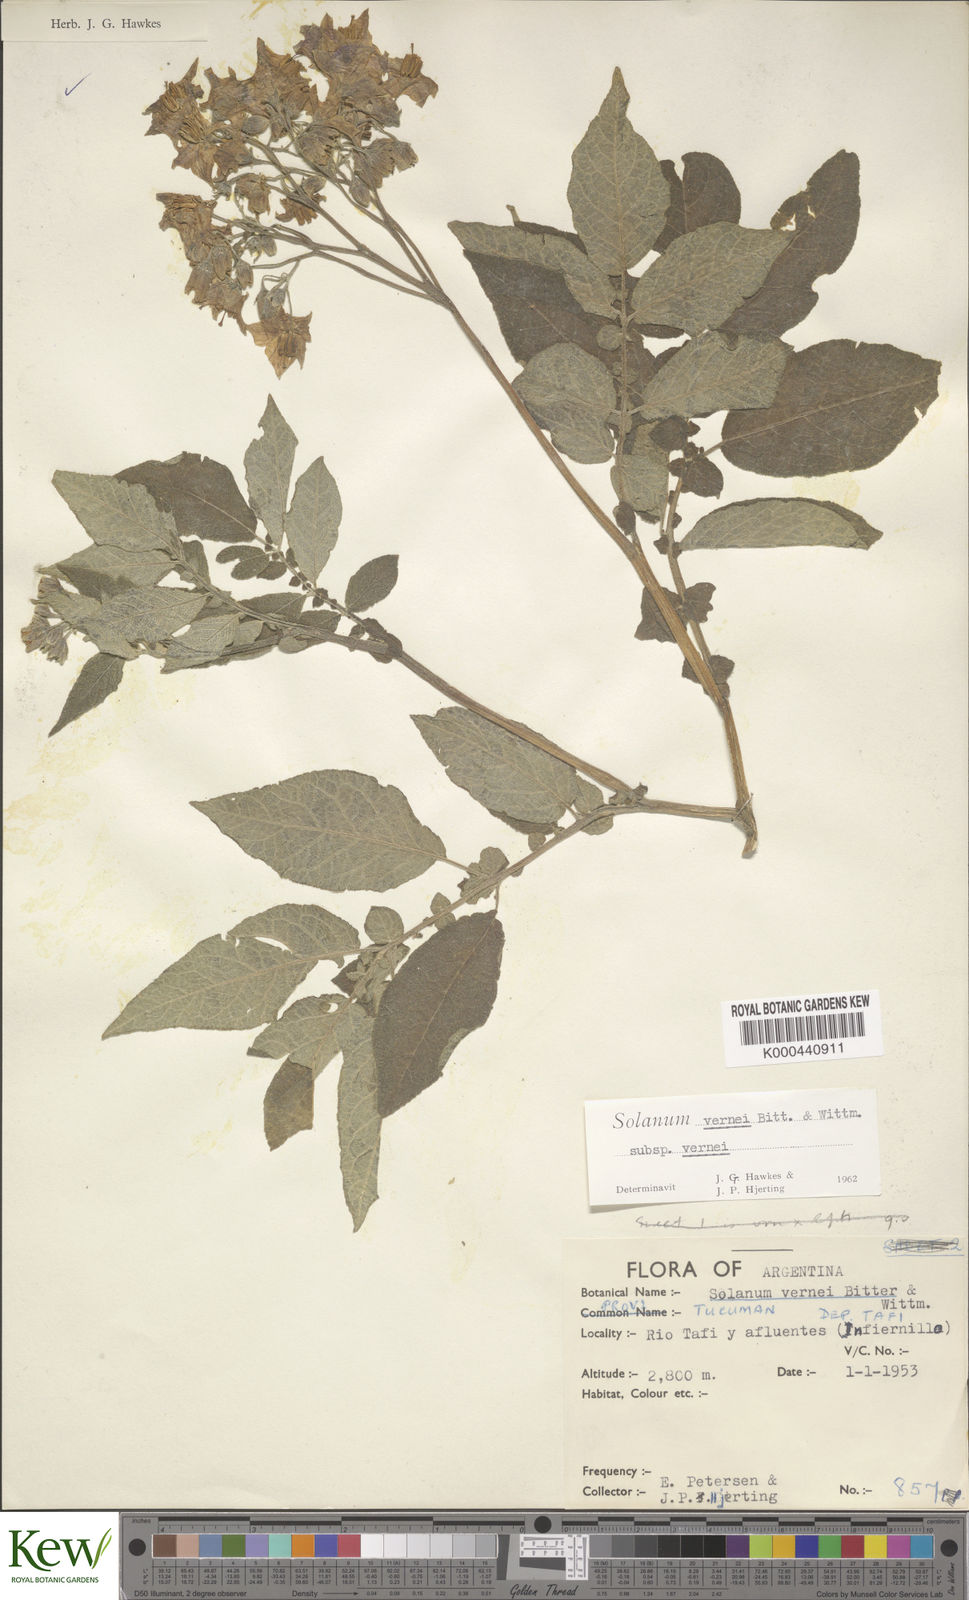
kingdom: Plantae
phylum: Tracheophyta
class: Magnoliopsida
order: Solanales
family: Solanaceae
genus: Solanum
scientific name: Solanum vernei
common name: Purple potato
